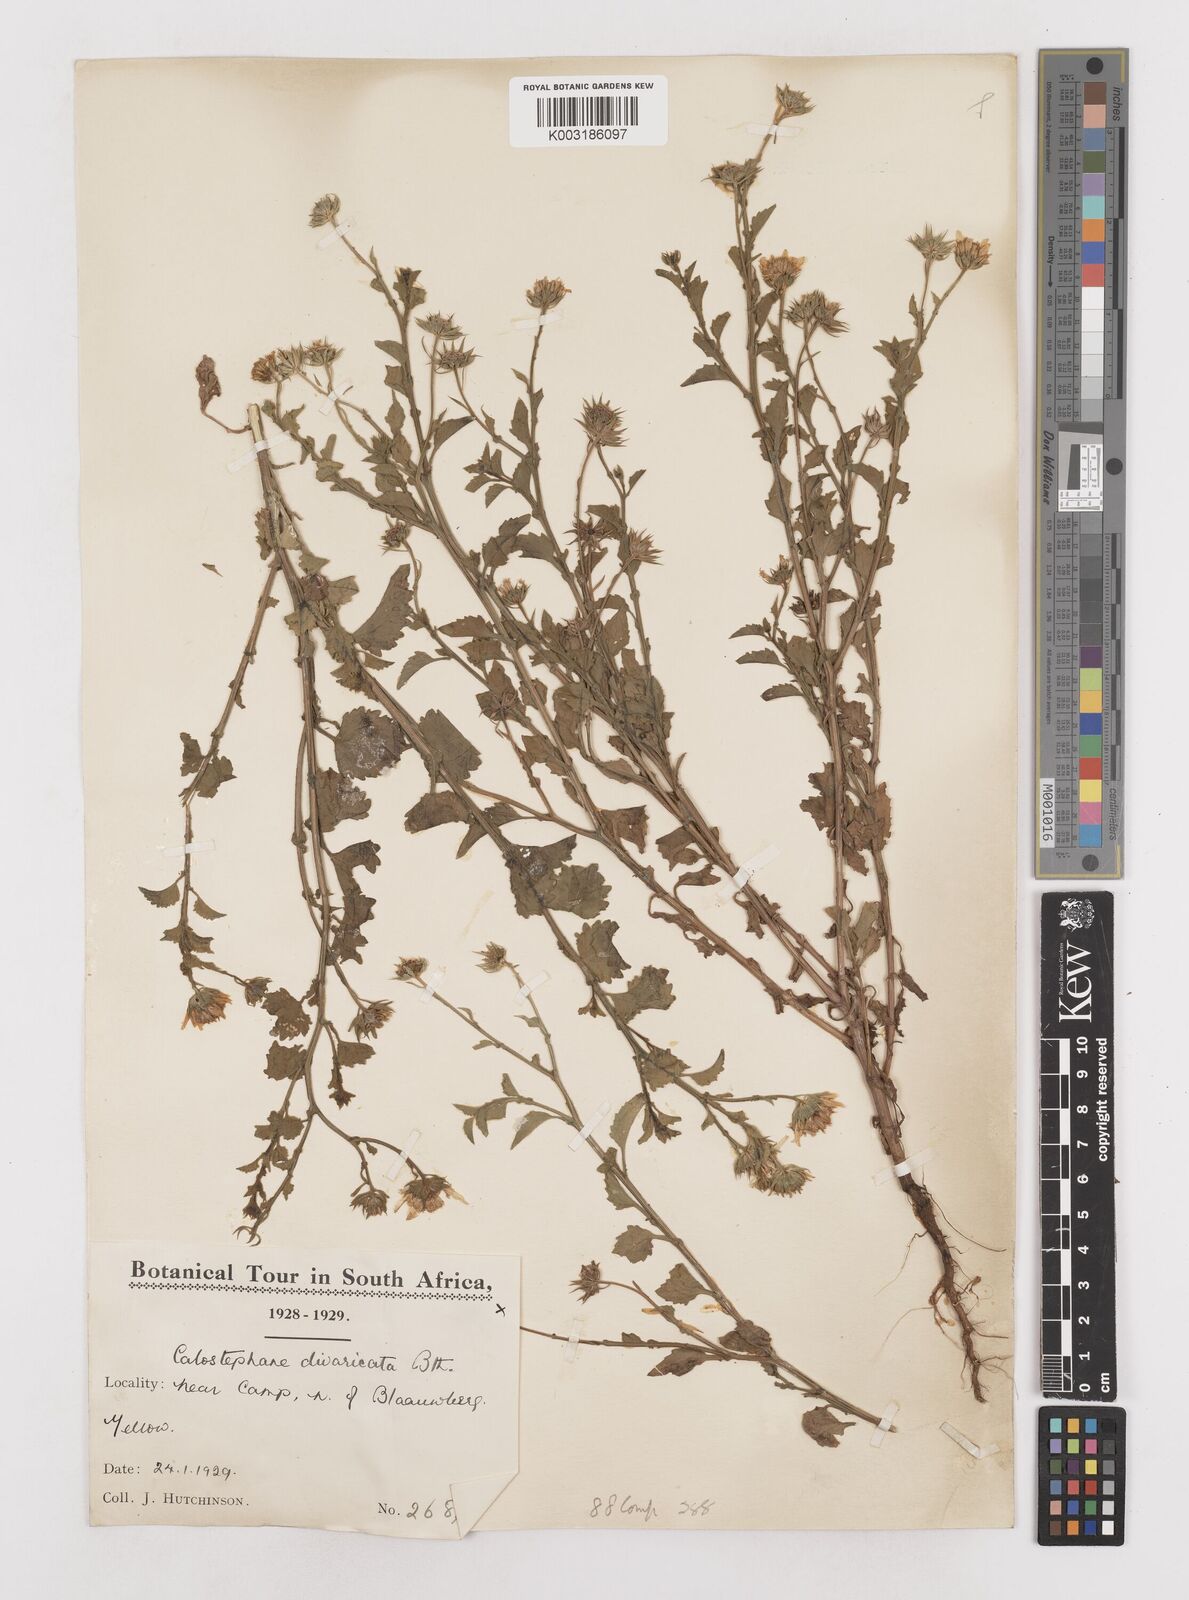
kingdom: Plantae
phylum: Tracheophyta
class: Magnoliopsida
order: Asterales
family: Asteraceae
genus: Calostephane
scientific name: Calostephane divaricata
